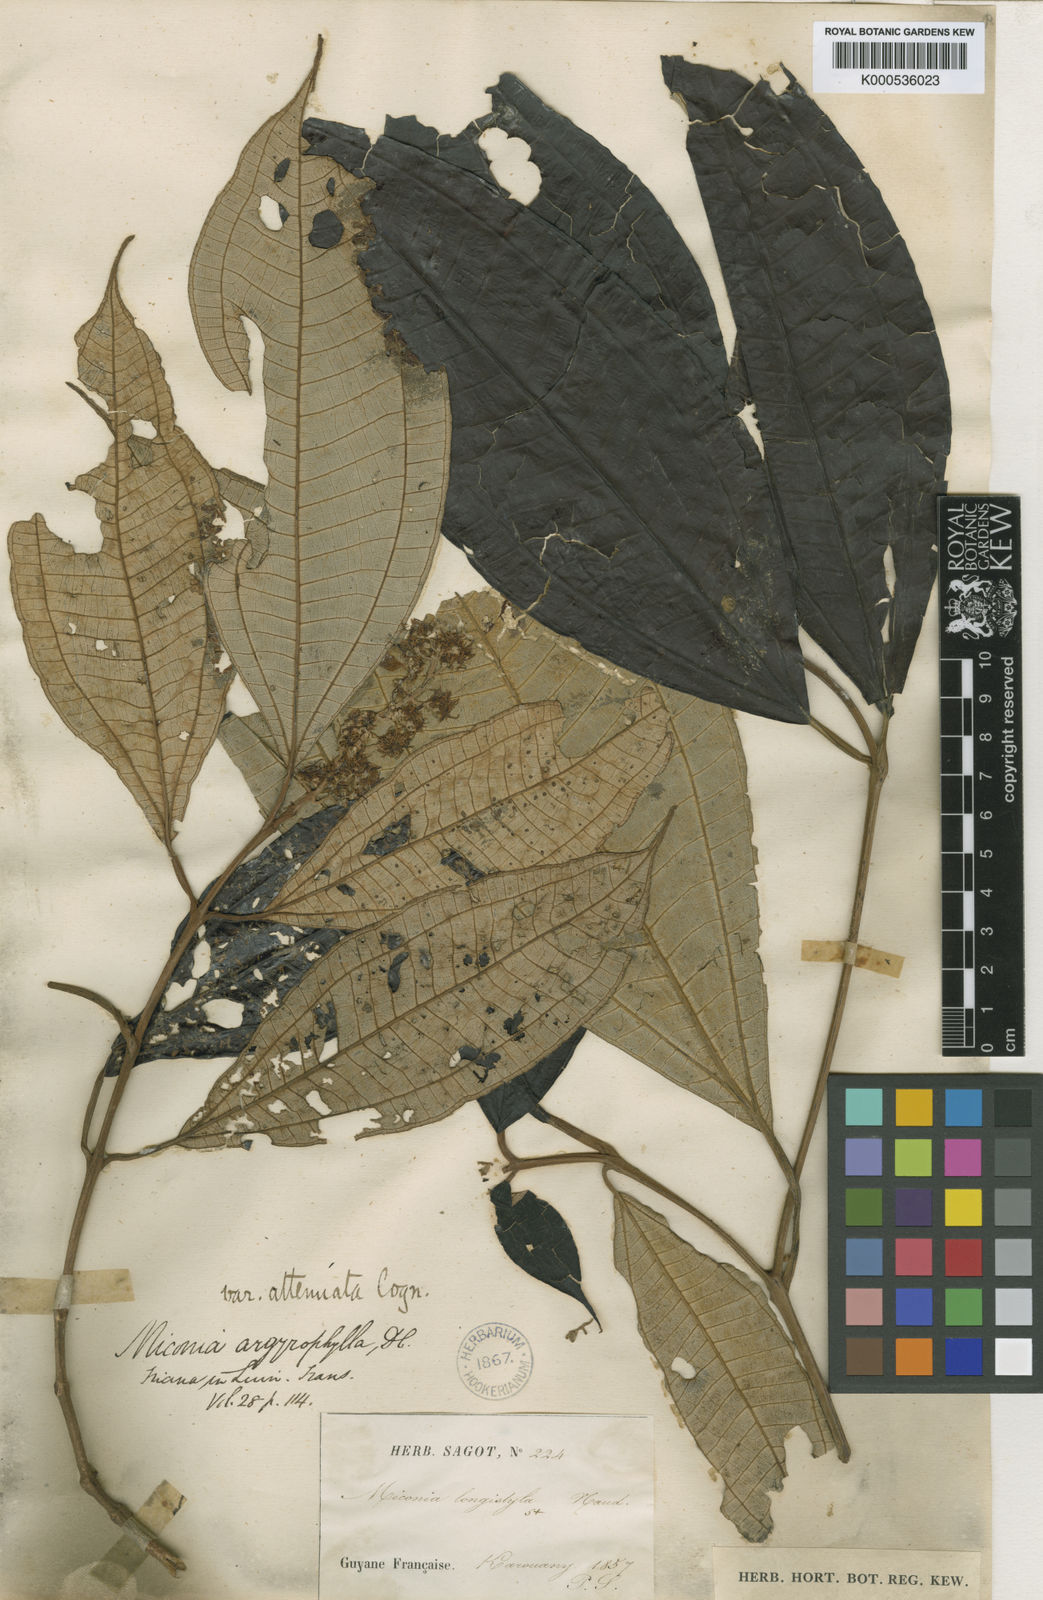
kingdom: Plantae
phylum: Tracheophyta
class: Magnoliopsida
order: Myrtales
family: Melastomataceae
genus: Miconia
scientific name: Miconia argyrophylla
